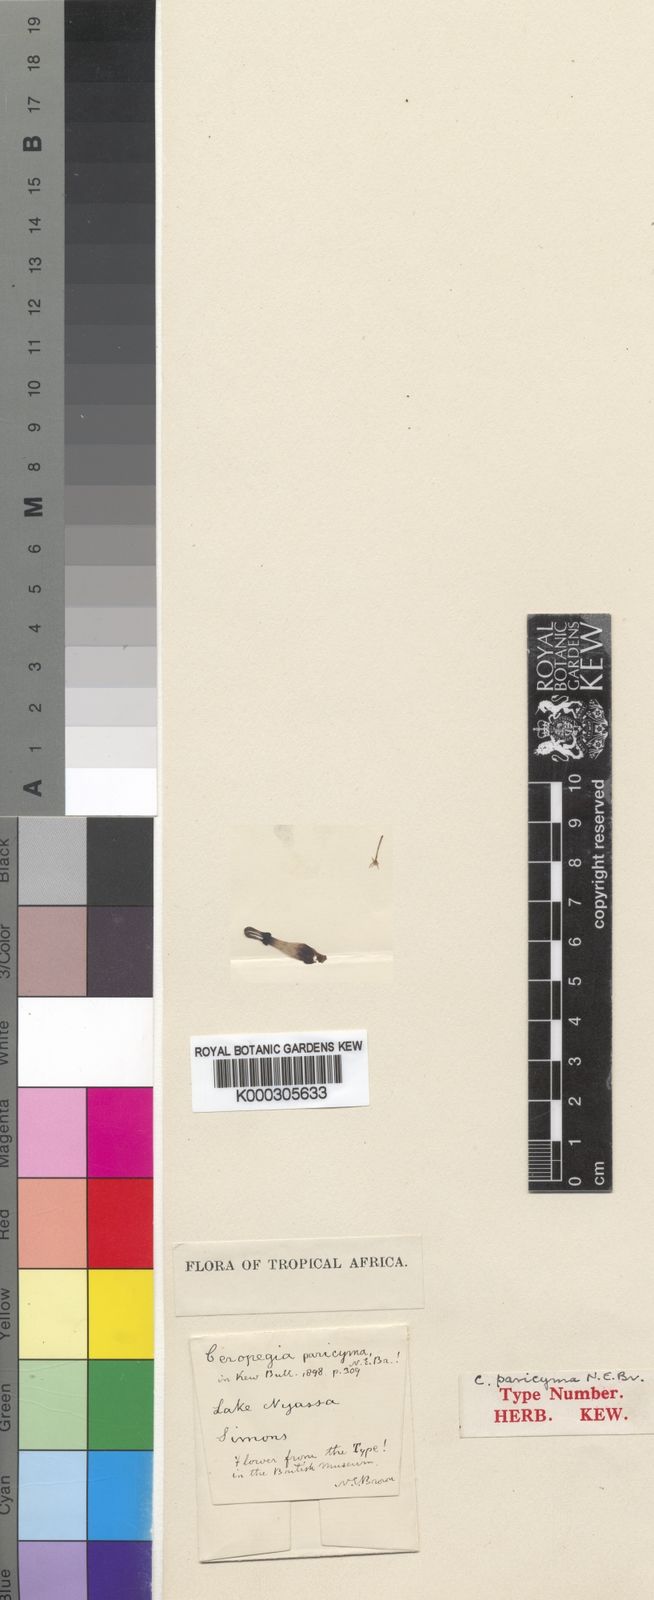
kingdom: Plantae
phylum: Tracheophyta
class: Magnoliopsida
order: Gentianales
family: Apocynaceae
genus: Ceropegia
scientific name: Ceropegia paricyma
